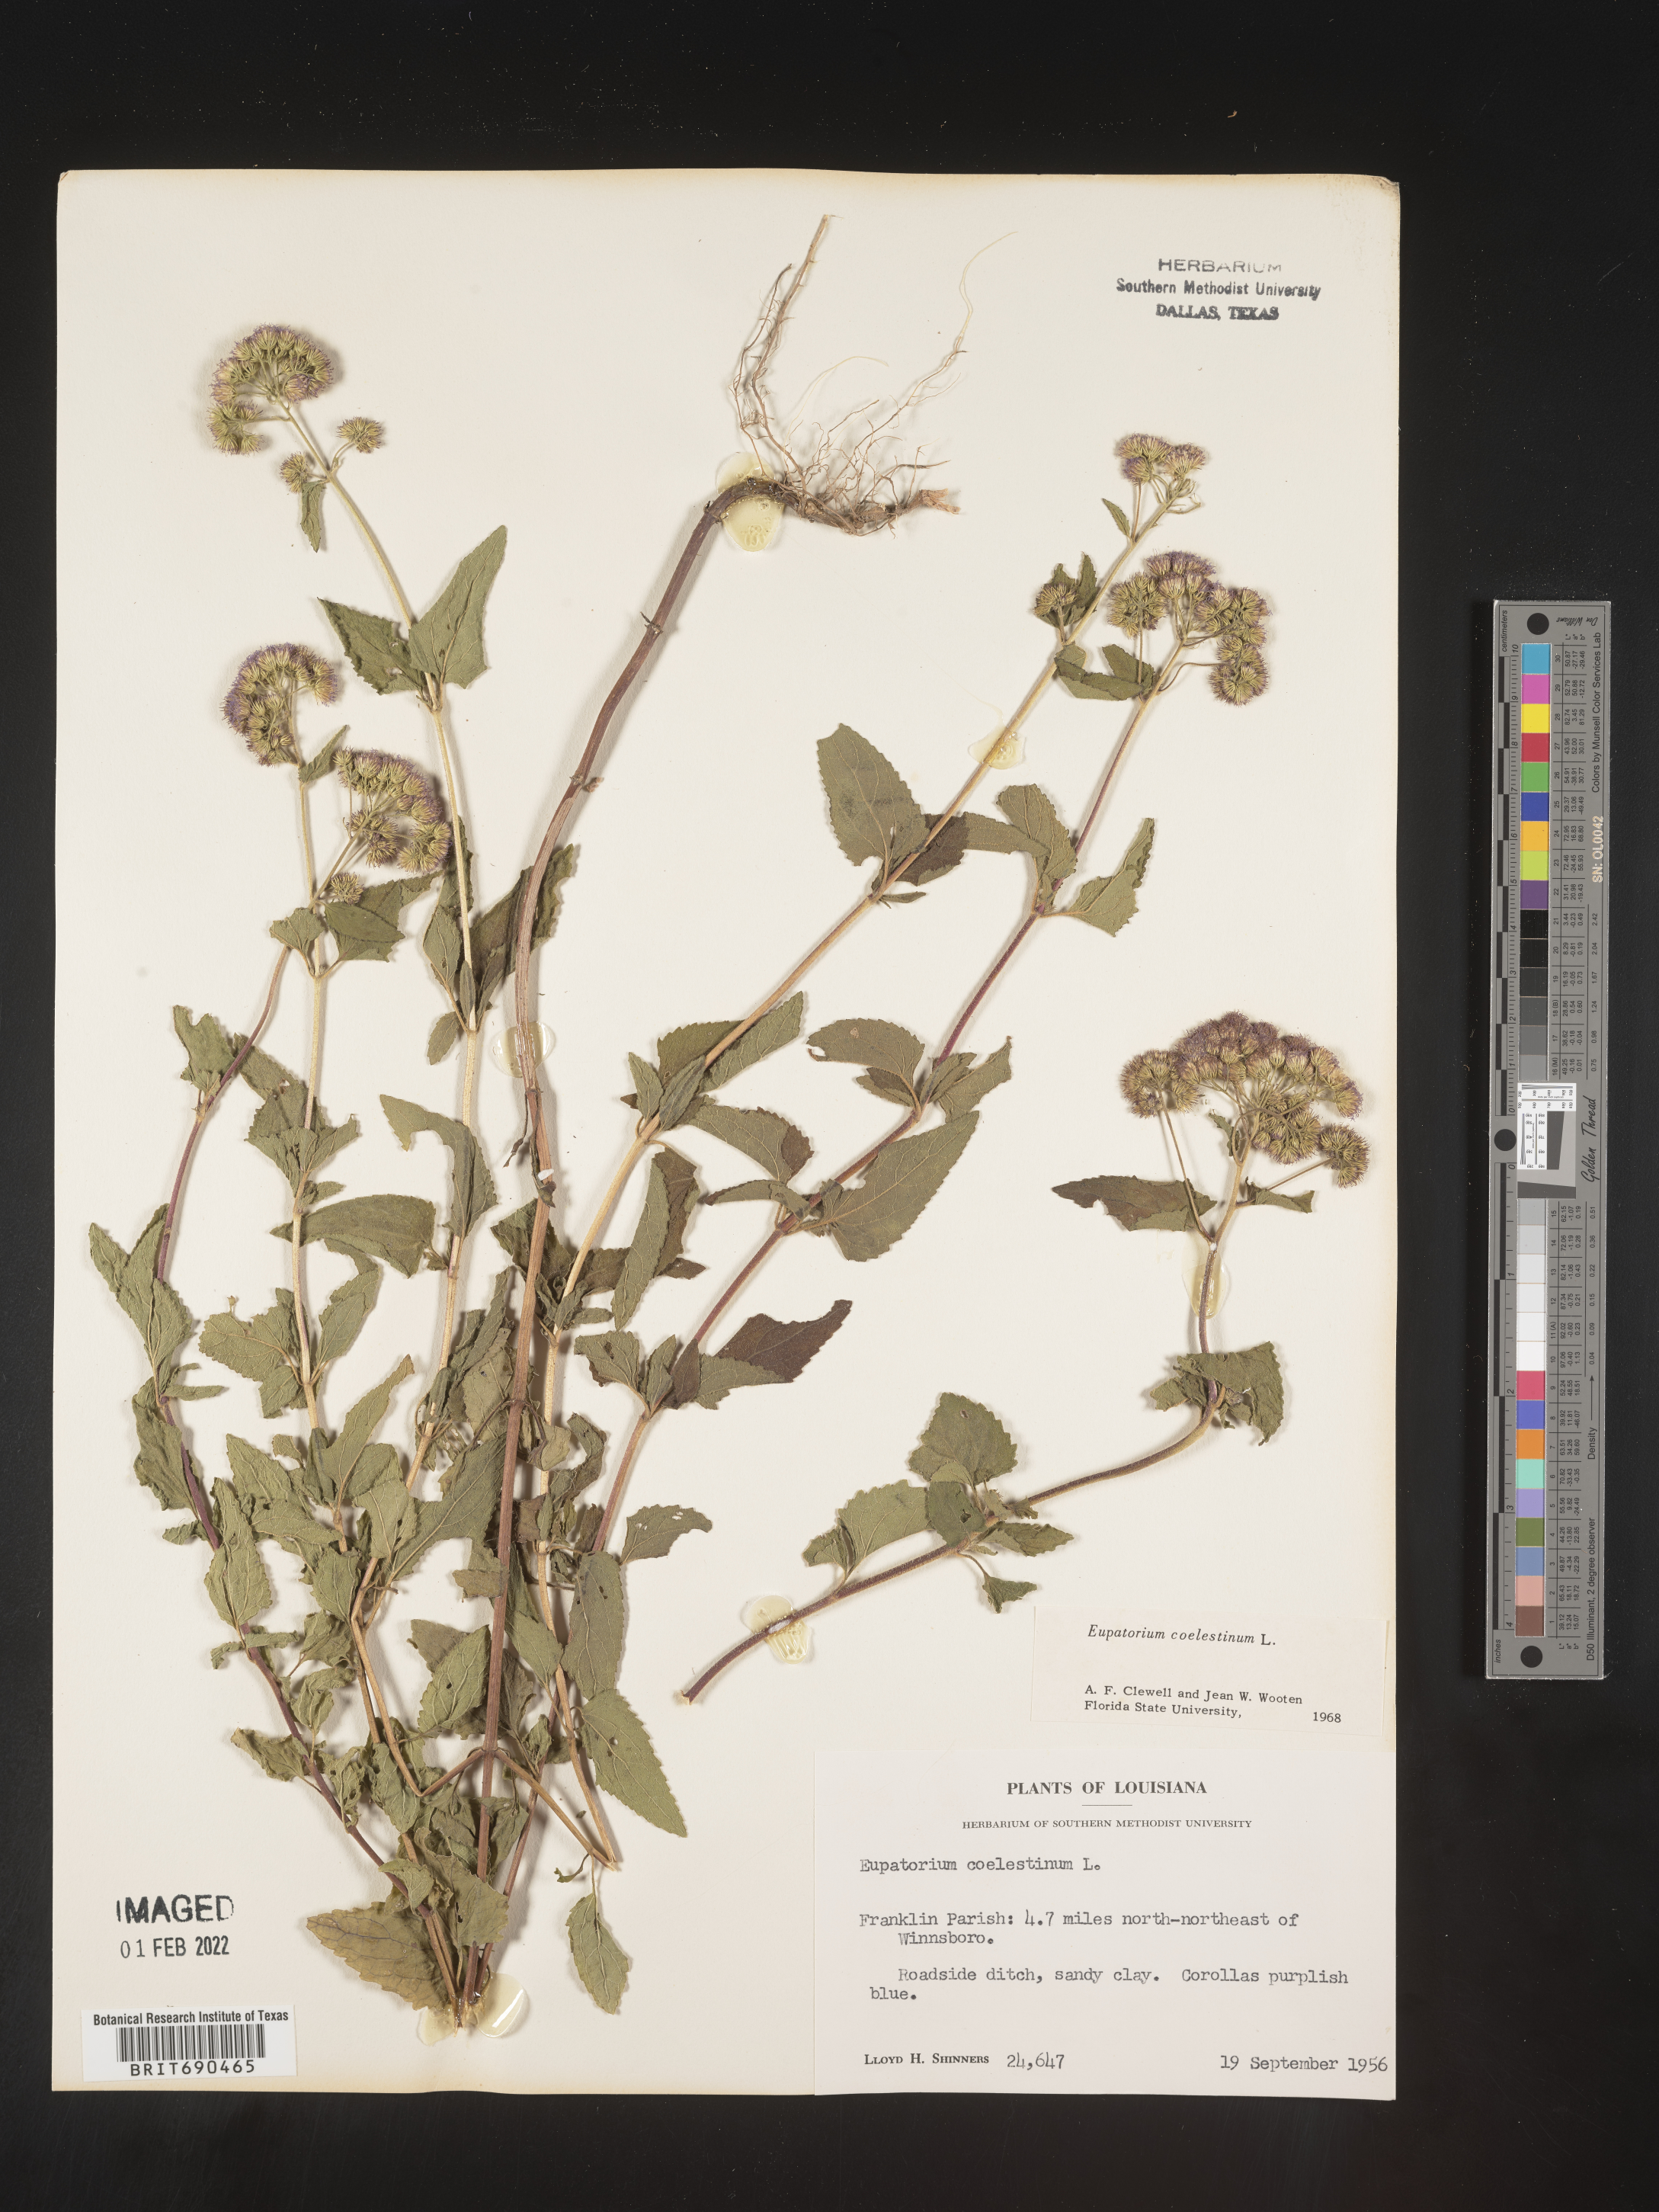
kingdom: Plantae
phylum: Tracheophyta
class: Magnoliopsida
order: Asterales
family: Asteraceae
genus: Conoclinium
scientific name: Conoclinium coelestinum
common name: Blue mistflower
